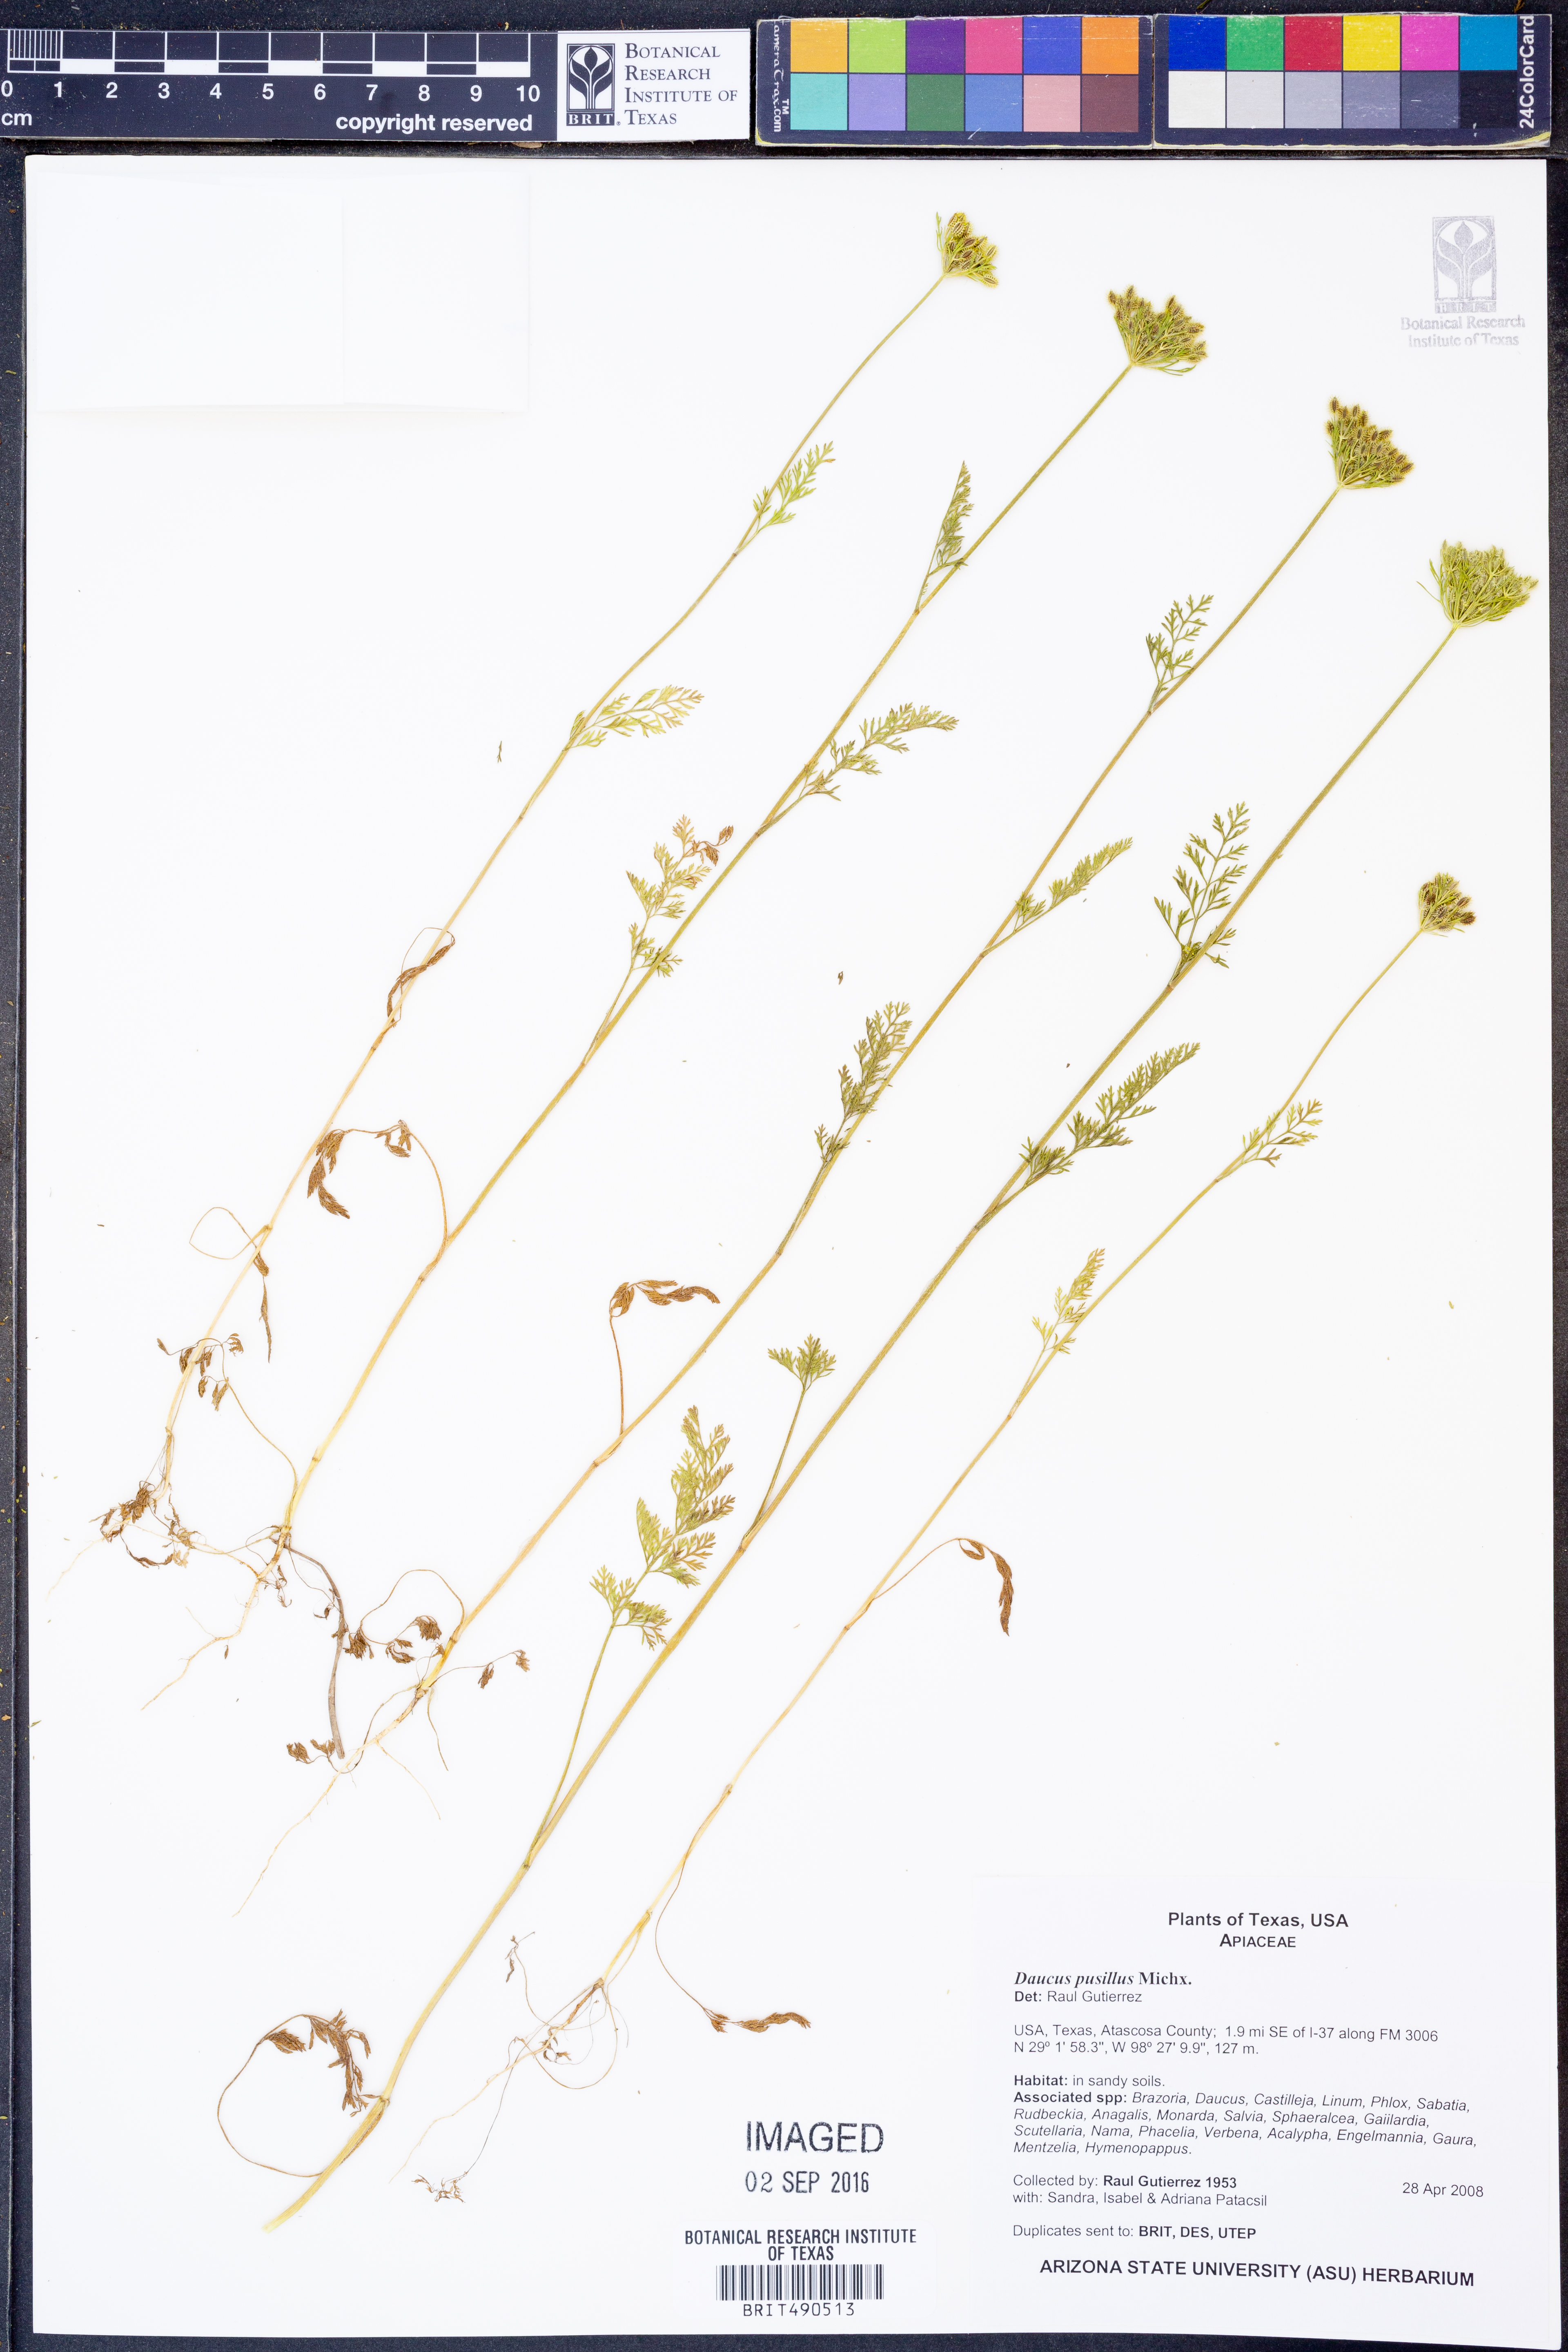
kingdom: Plantae
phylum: Tracheophyta
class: Magnoliopsida
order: Apiales
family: Apiaceae
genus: Daucus
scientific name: Daucus pusillus
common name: Southwest wild carrot
